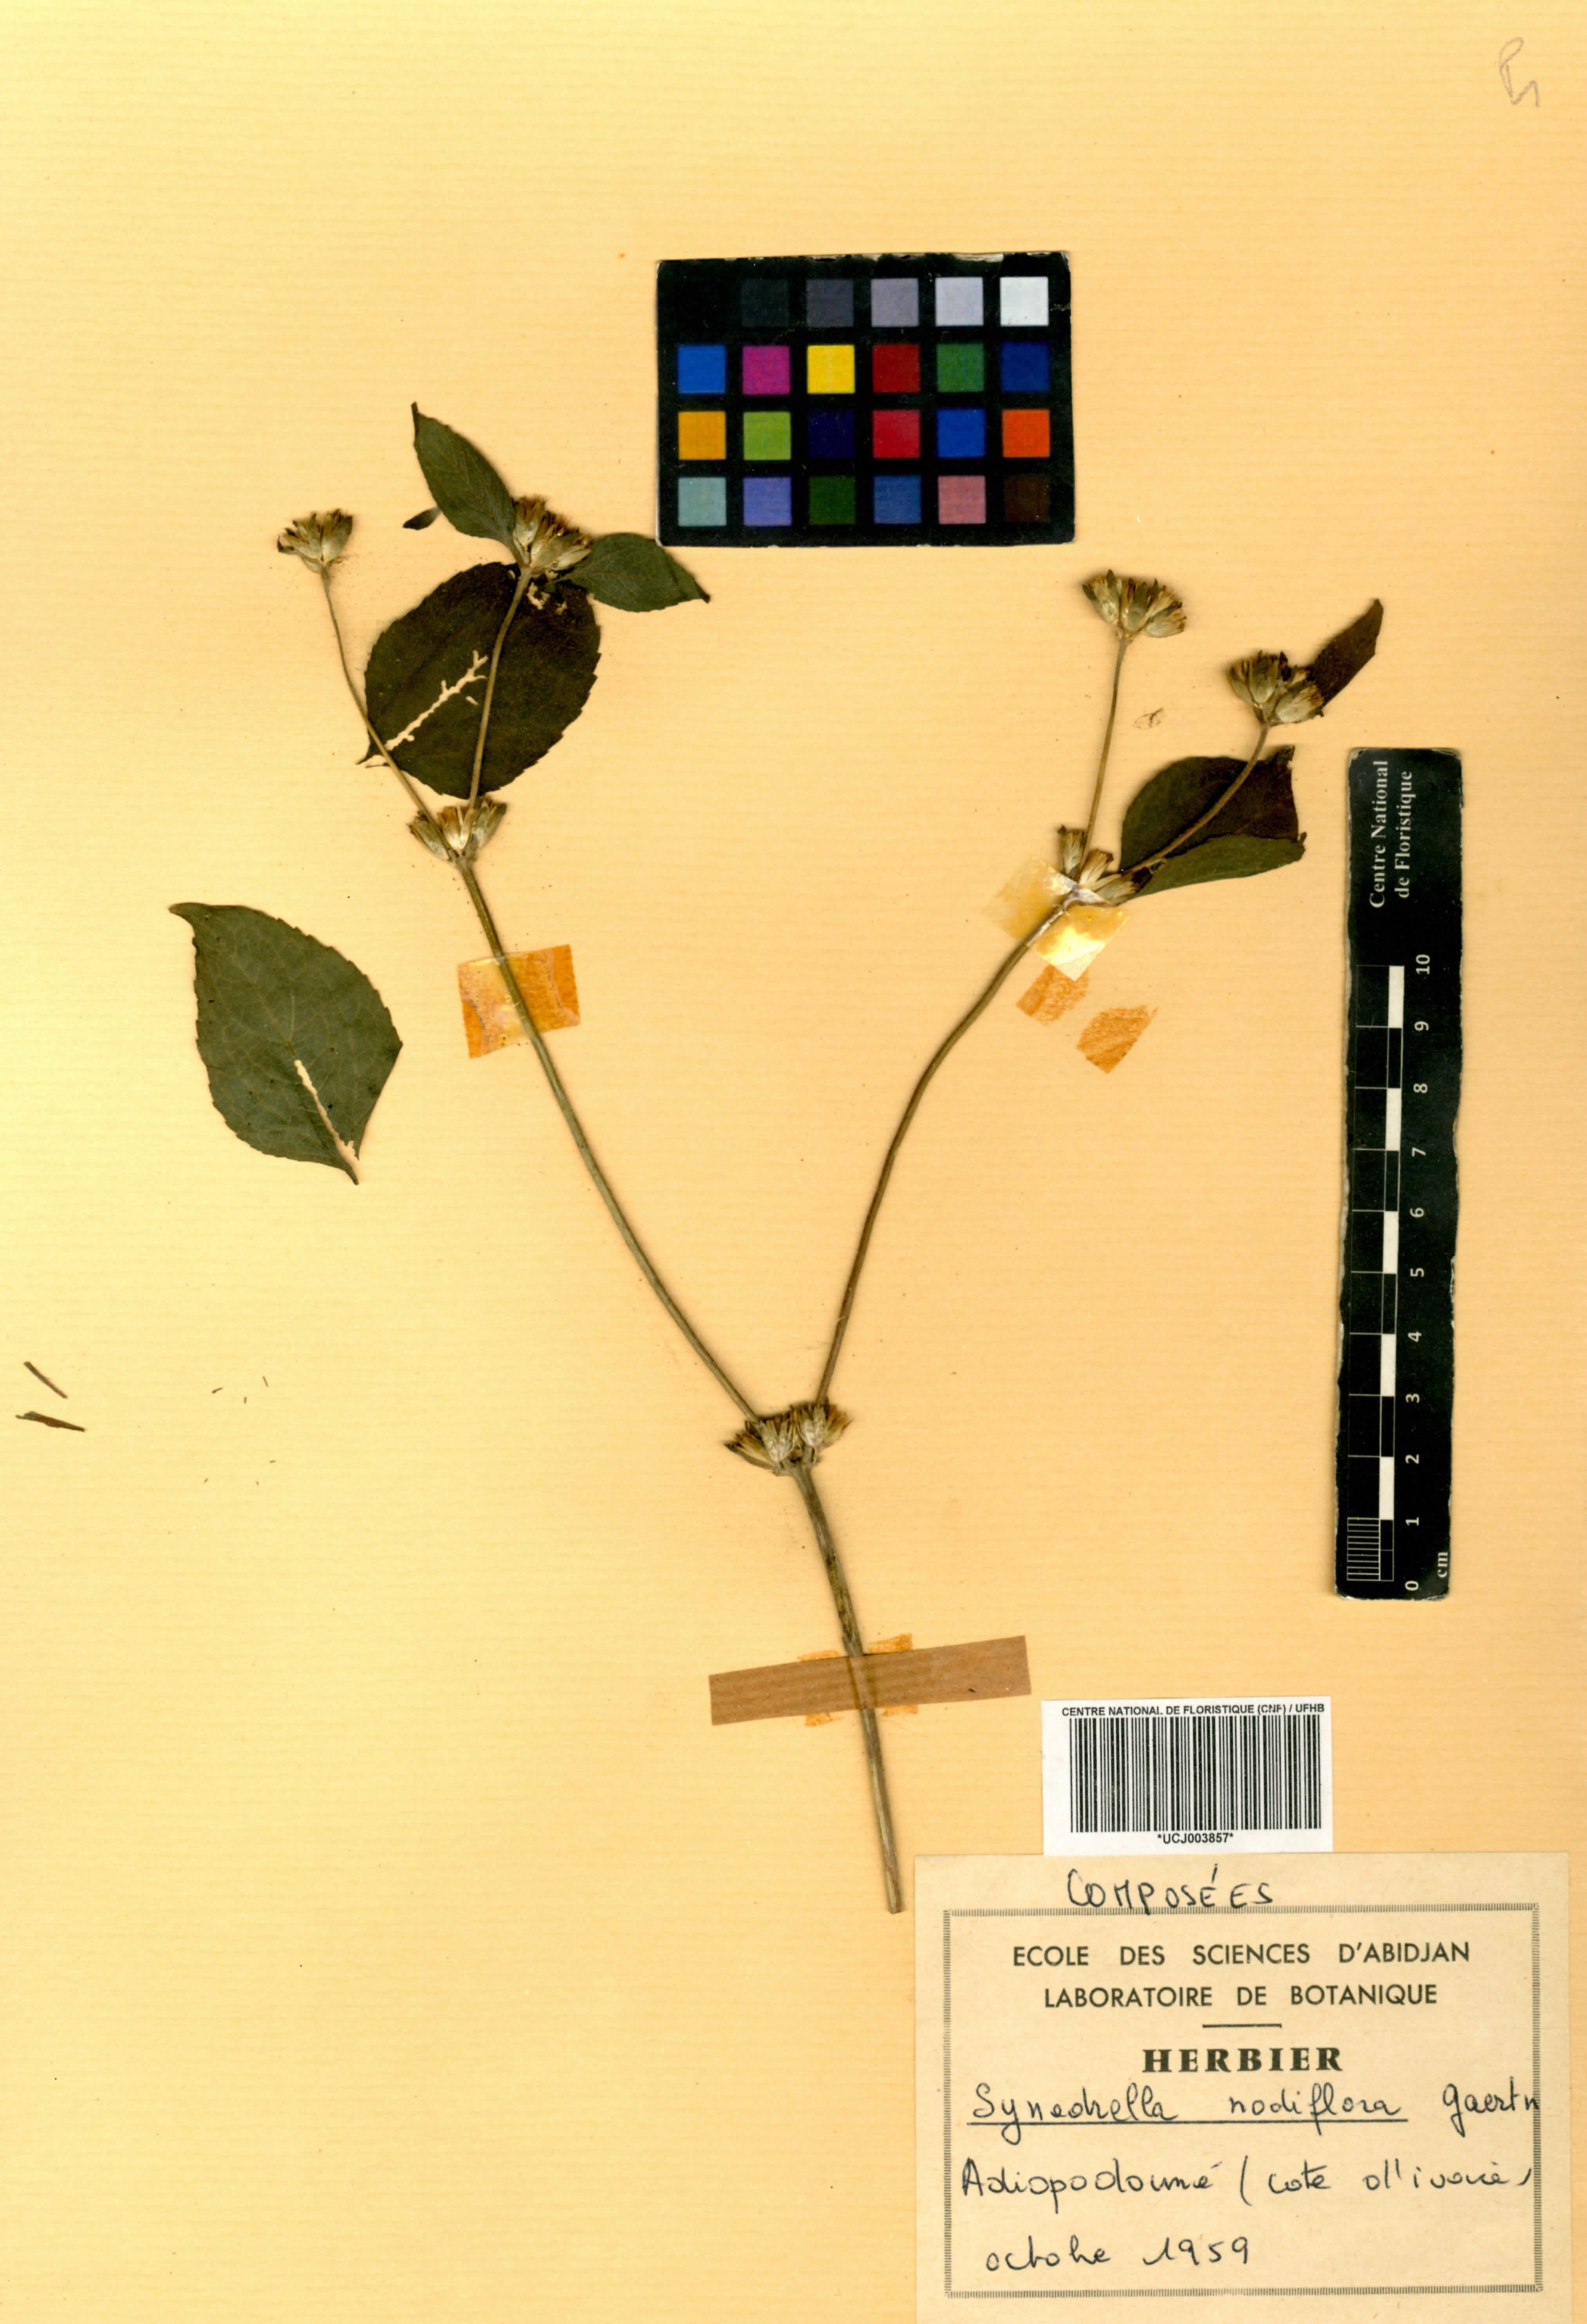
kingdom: Plantae
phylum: Tracheophyta
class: Magnoliopsida
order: Asterales
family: Asteraceae
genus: Synedrella
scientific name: Synedrella nodiflora
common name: Nodeweed
